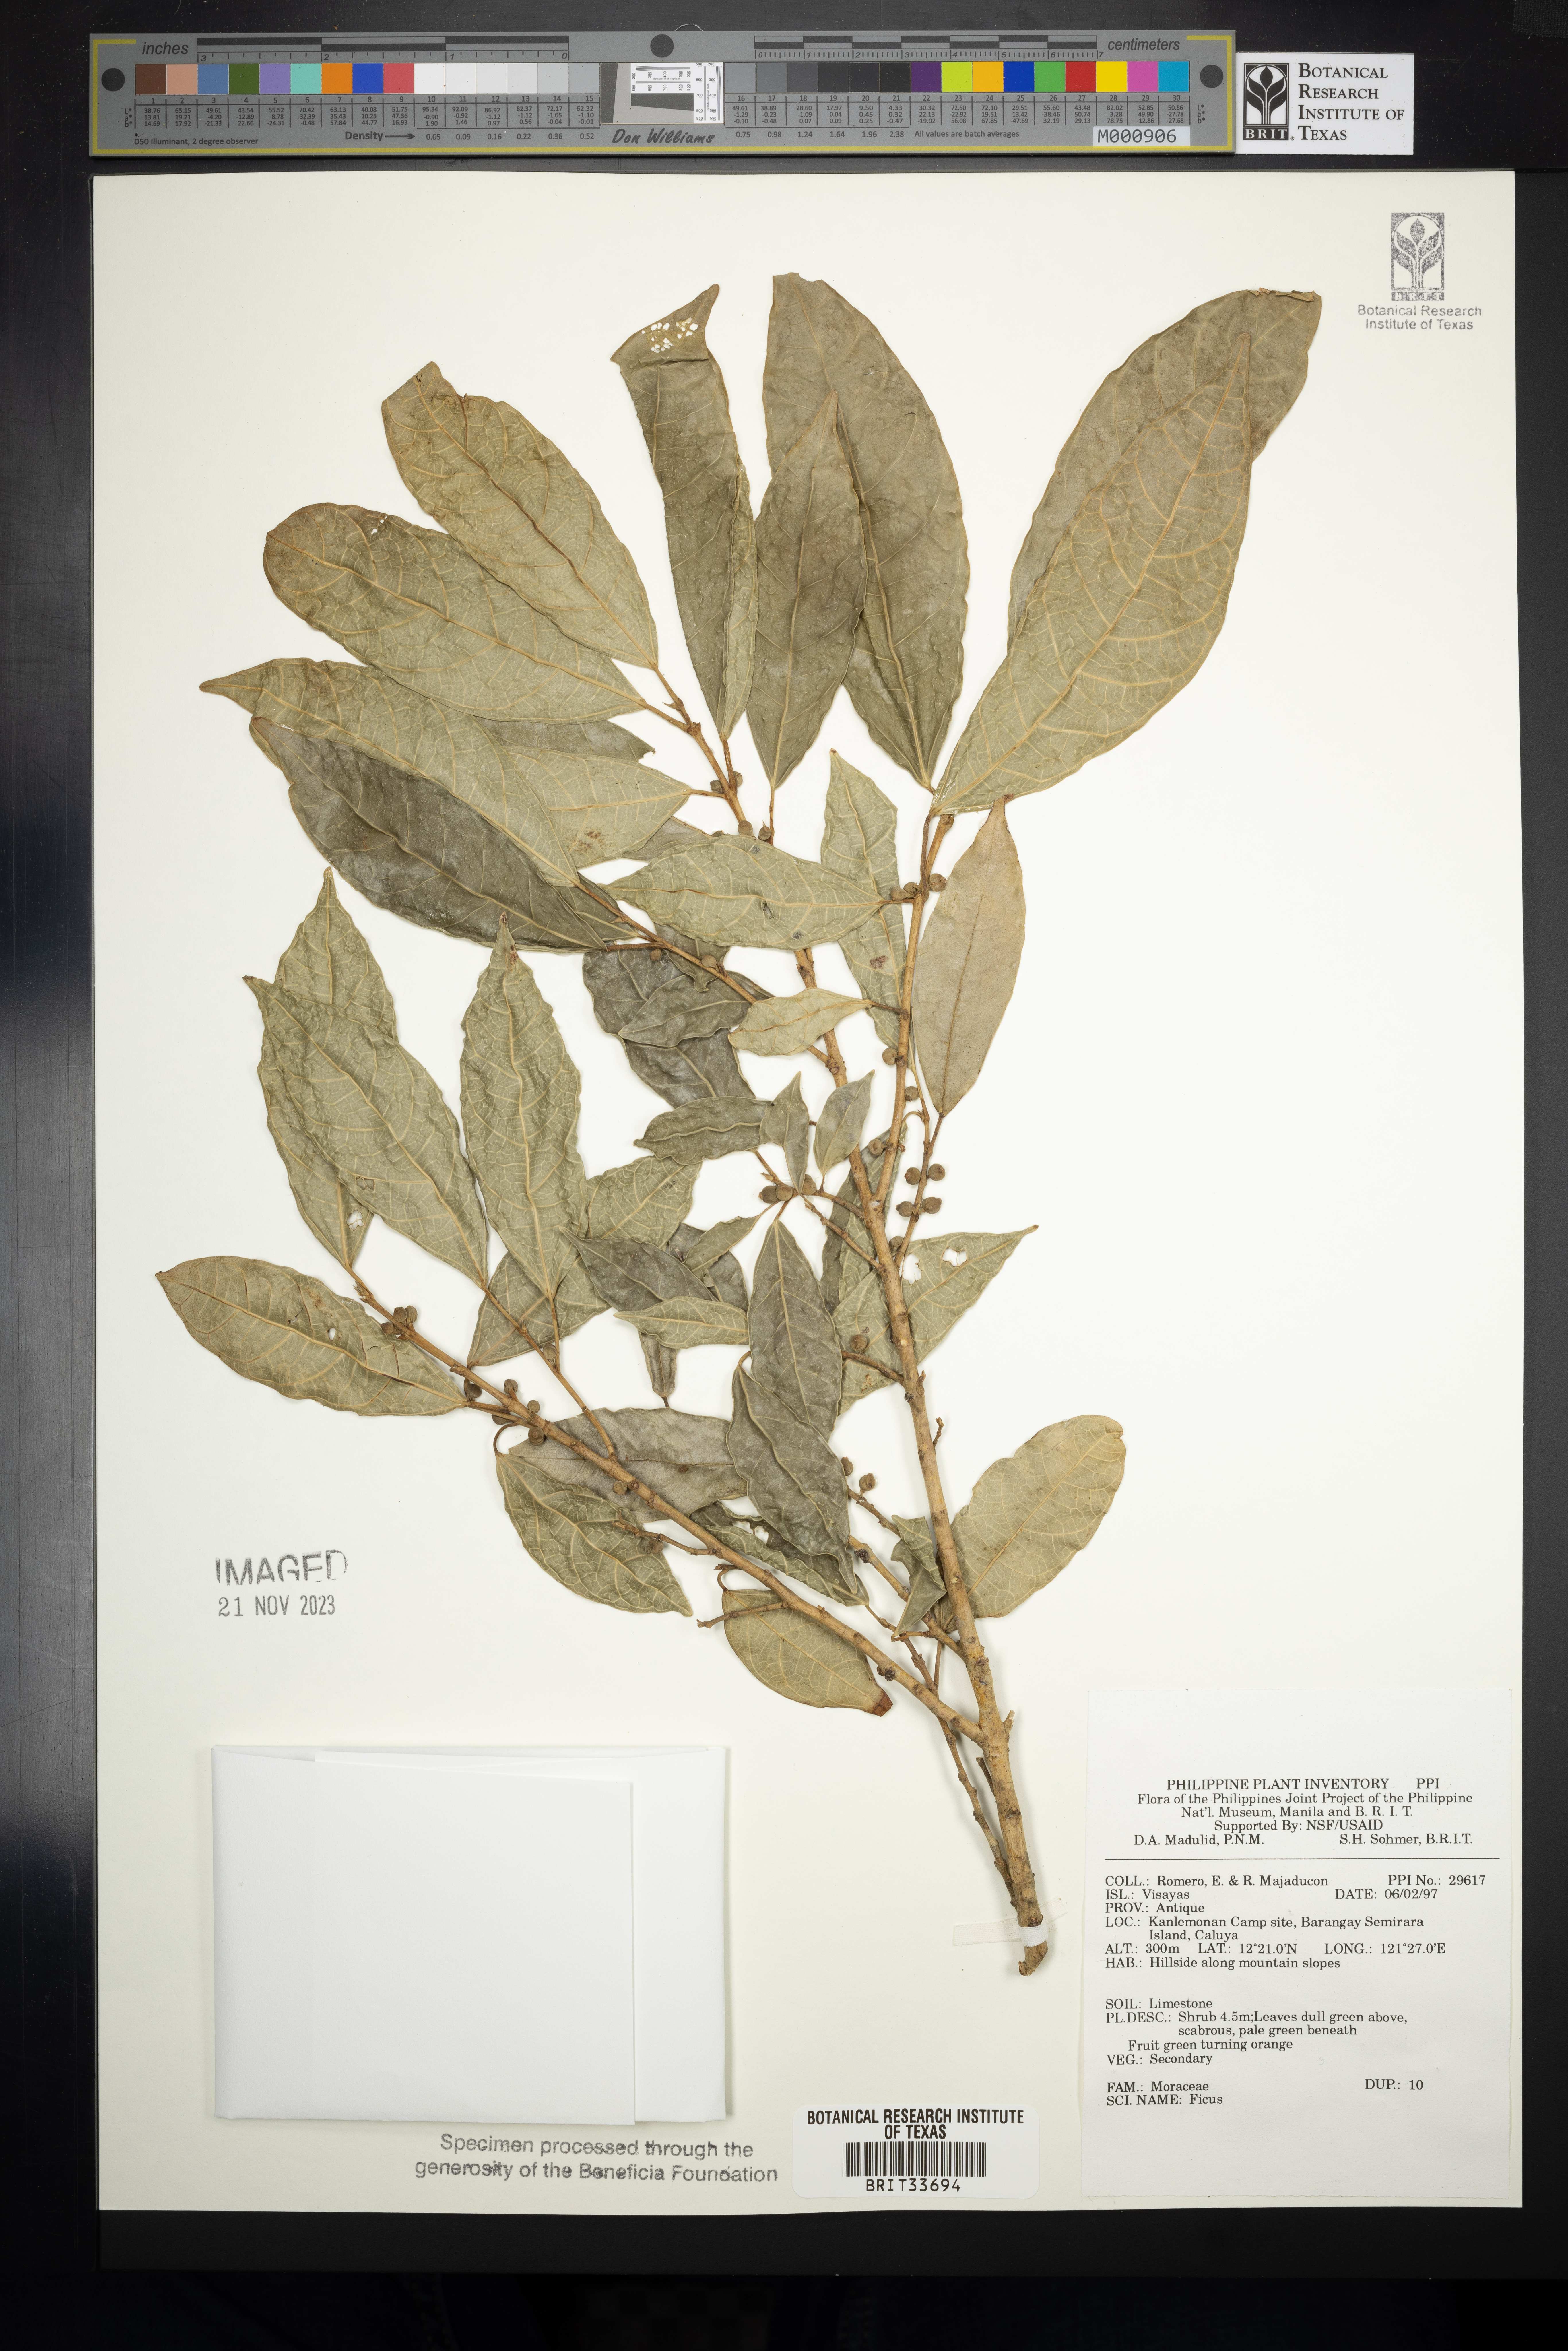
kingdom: Plantae
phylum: Tracheophyta
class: Magnoliopsida
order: Rosales
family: Moraceae
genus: Ficus
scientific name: Ficus
